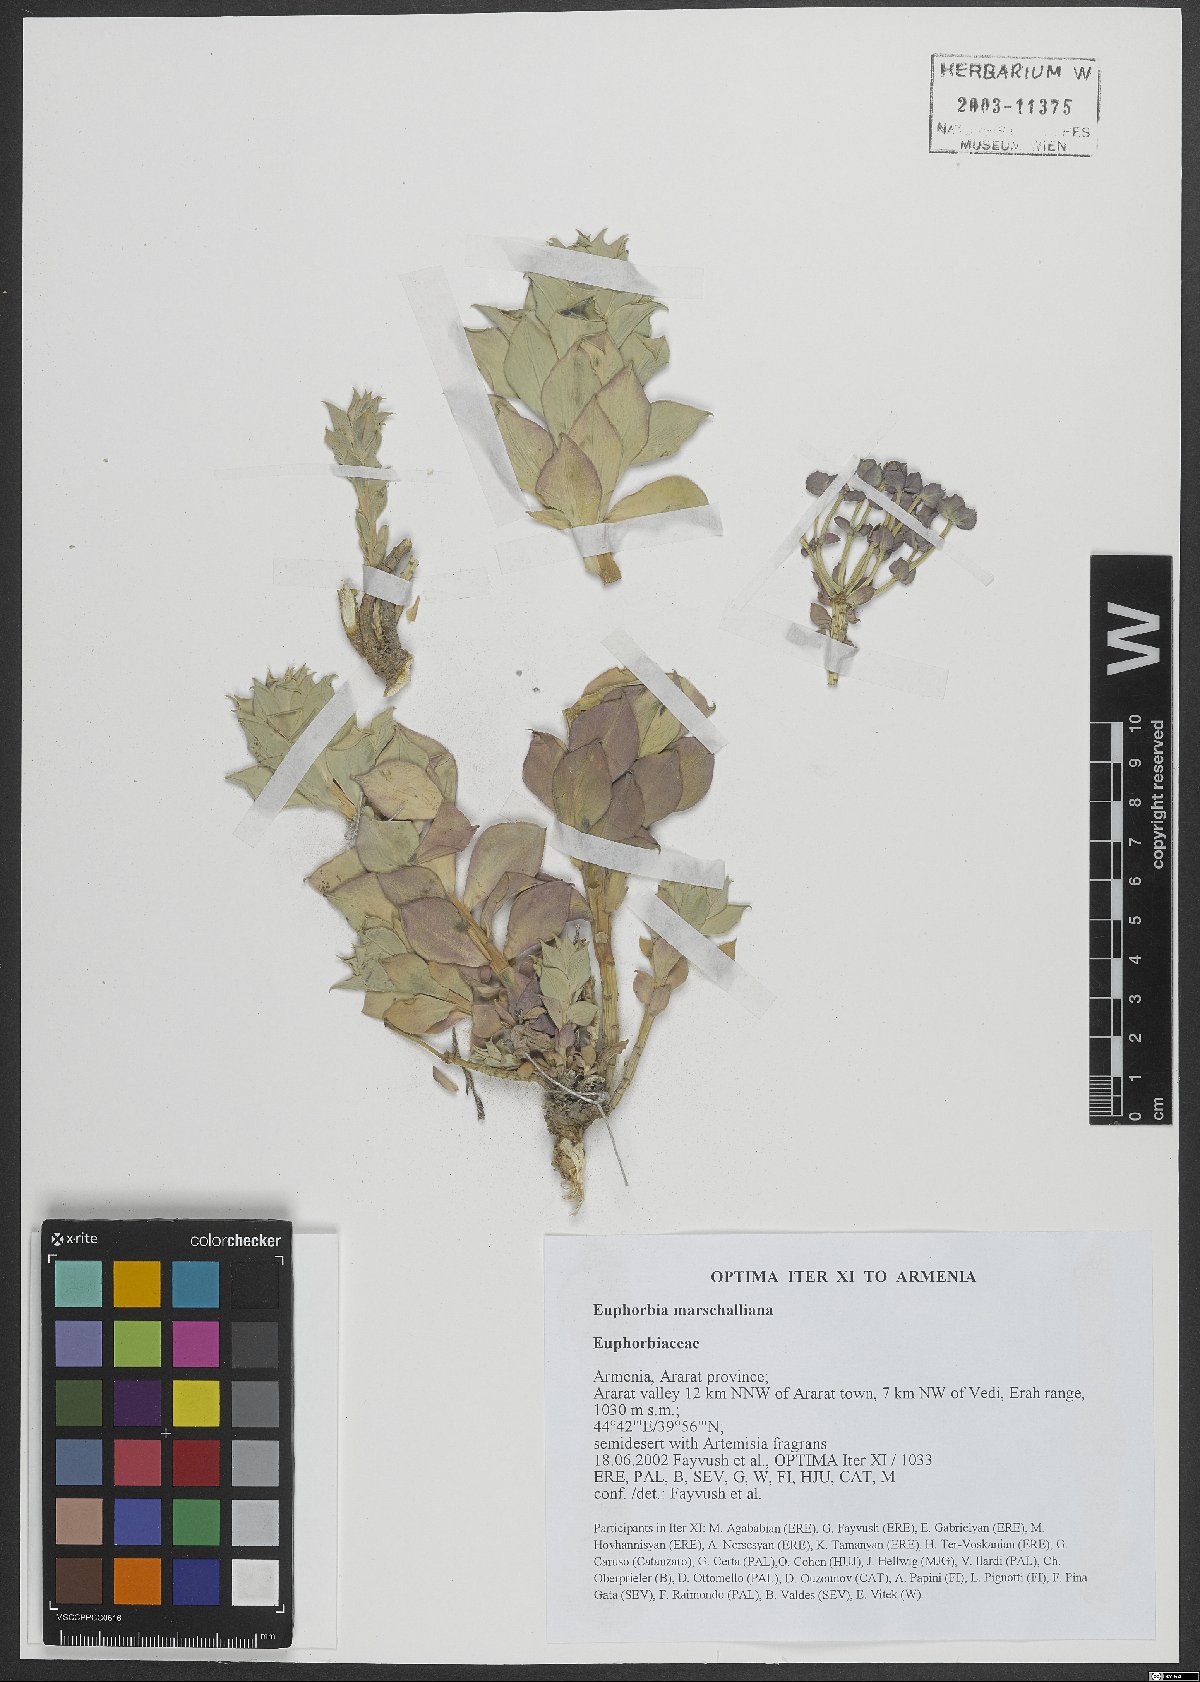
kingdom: Plantae
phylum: Tracheophyta
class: Magnoliopsida
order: Malpighiales
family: Euphorbiaceae
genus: Euphorbia
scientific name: Euphorbia marschalliana
